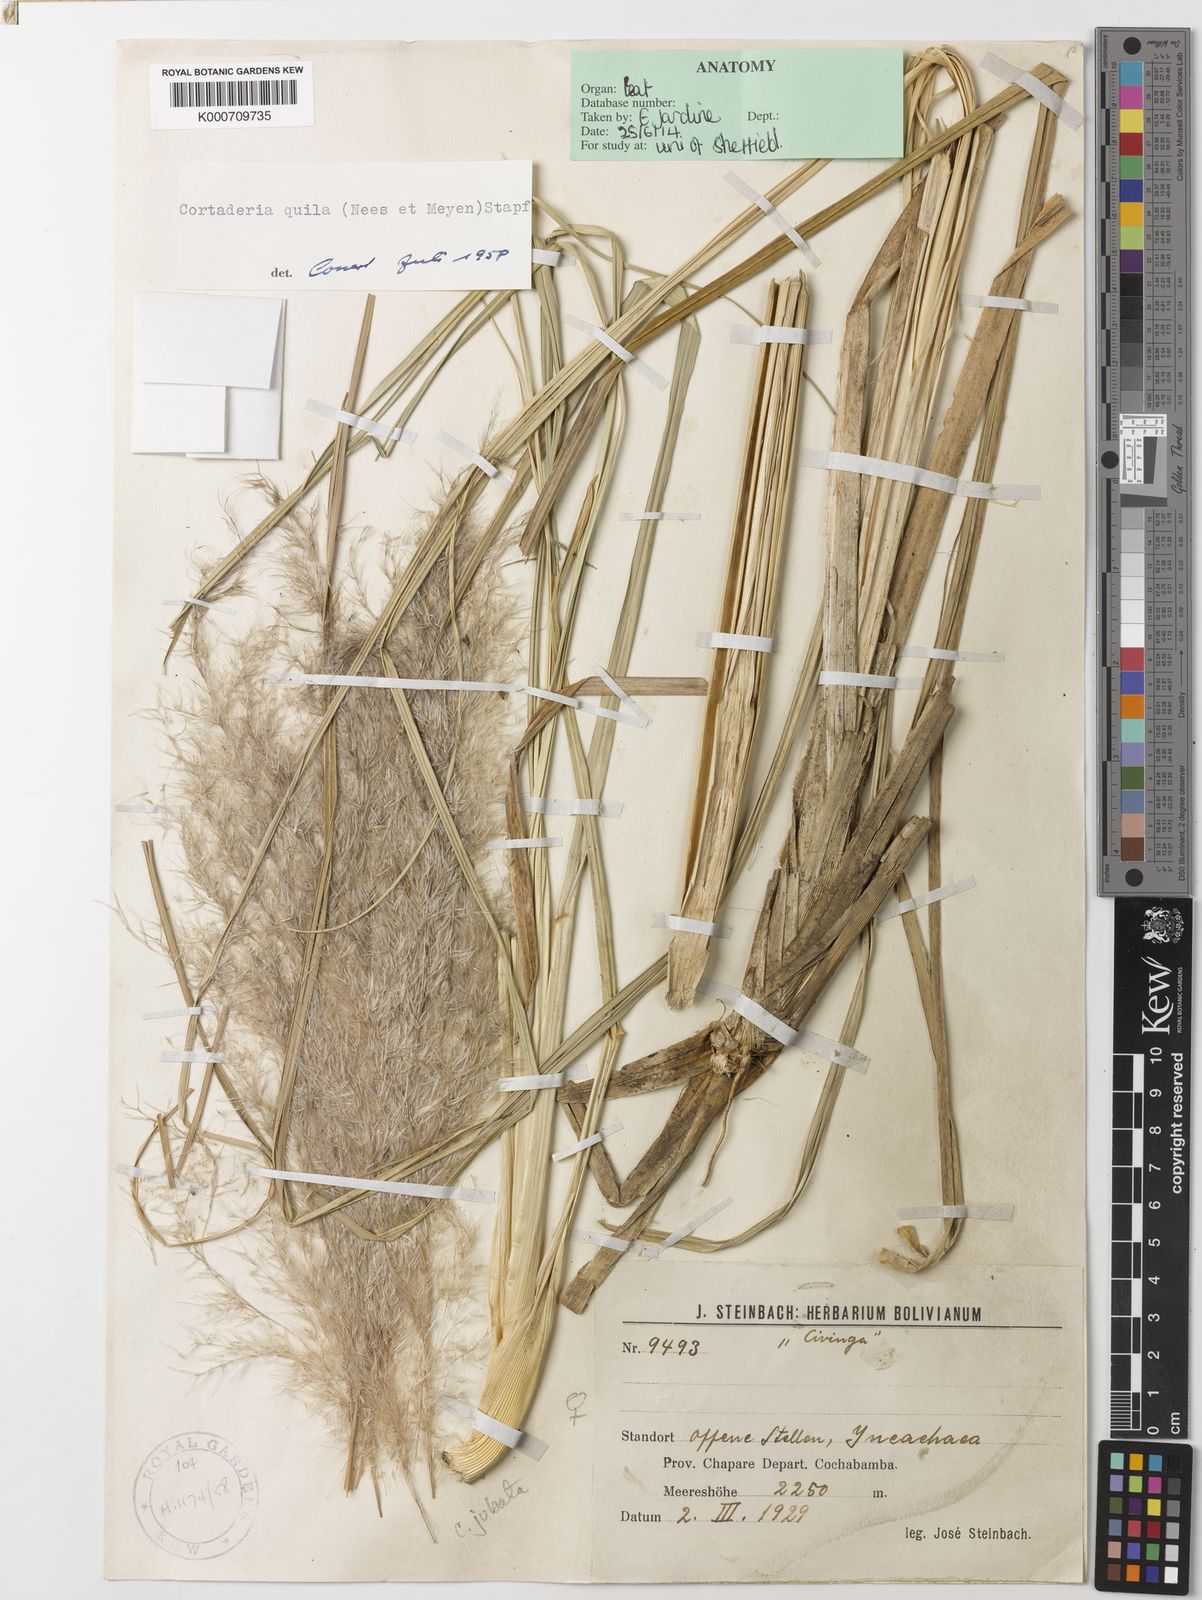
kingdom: Plantae
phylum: Tracheophyta
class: Liliopsida
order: Poales
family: Poaceae
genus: Cortaderia
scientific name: Cortaderia jubata
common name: Purple pampas grass
